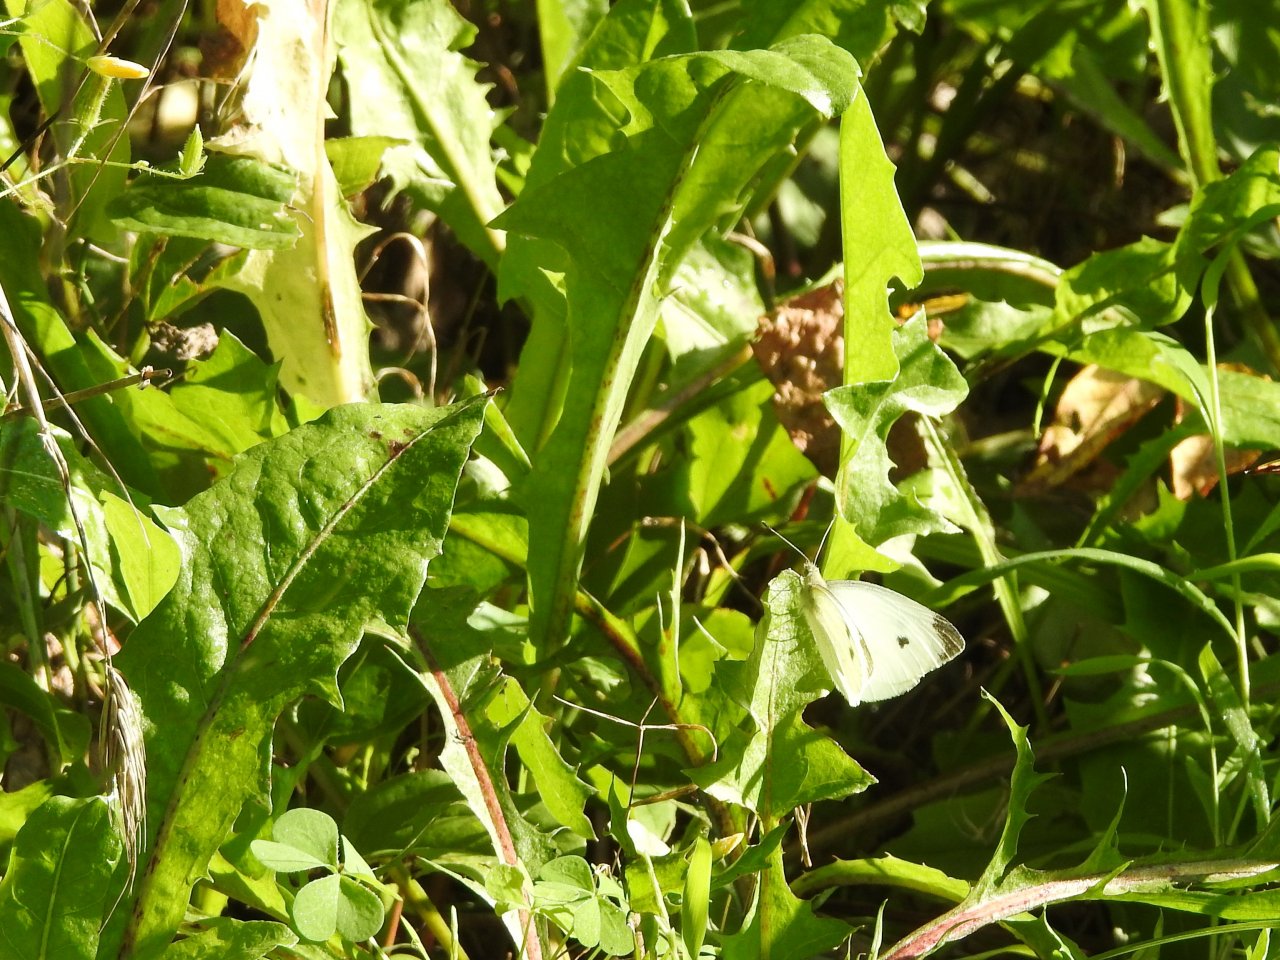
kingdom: Animalia
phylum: Arthropoda
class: Insecta
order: Lepidoptera
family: Pieridae
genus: Pieris
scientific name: Pieris rapae
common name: Cabbage White
